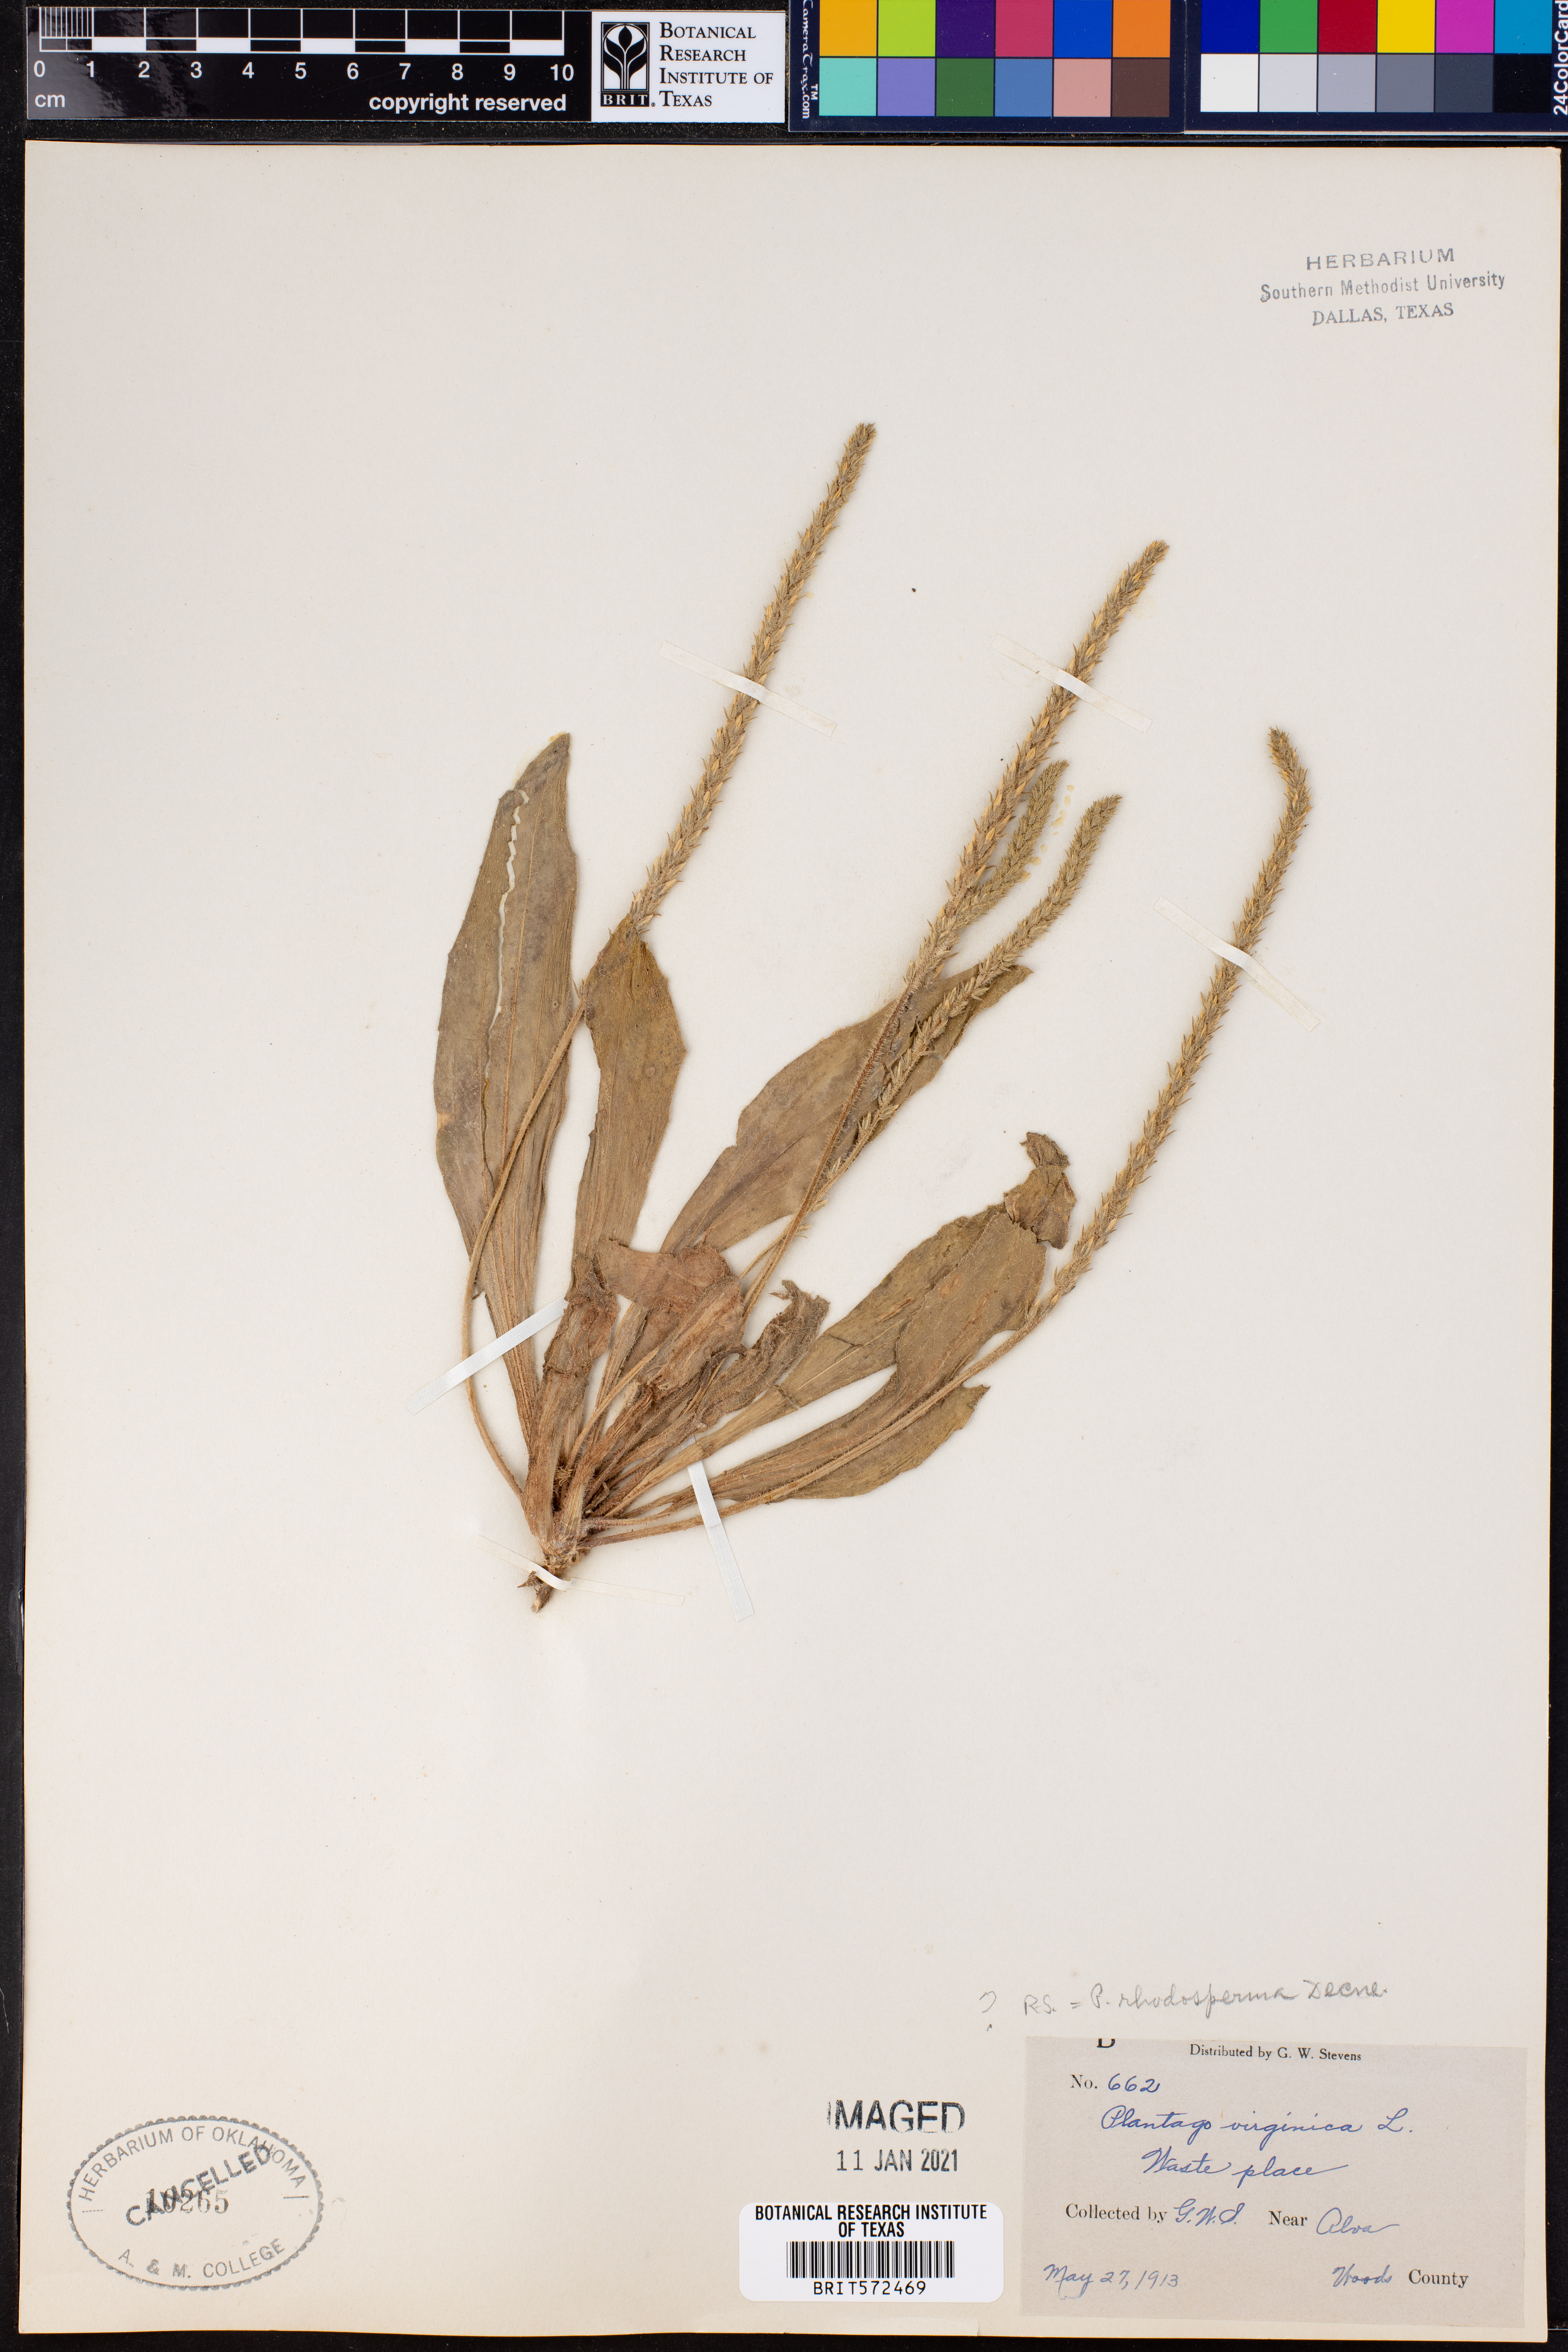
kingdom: Plantae
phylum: Tracheophyta
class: Magnoliopsida
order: Lamiales
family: Plantaginaceae
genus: Plantago
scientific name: Plantago rhodosperma
